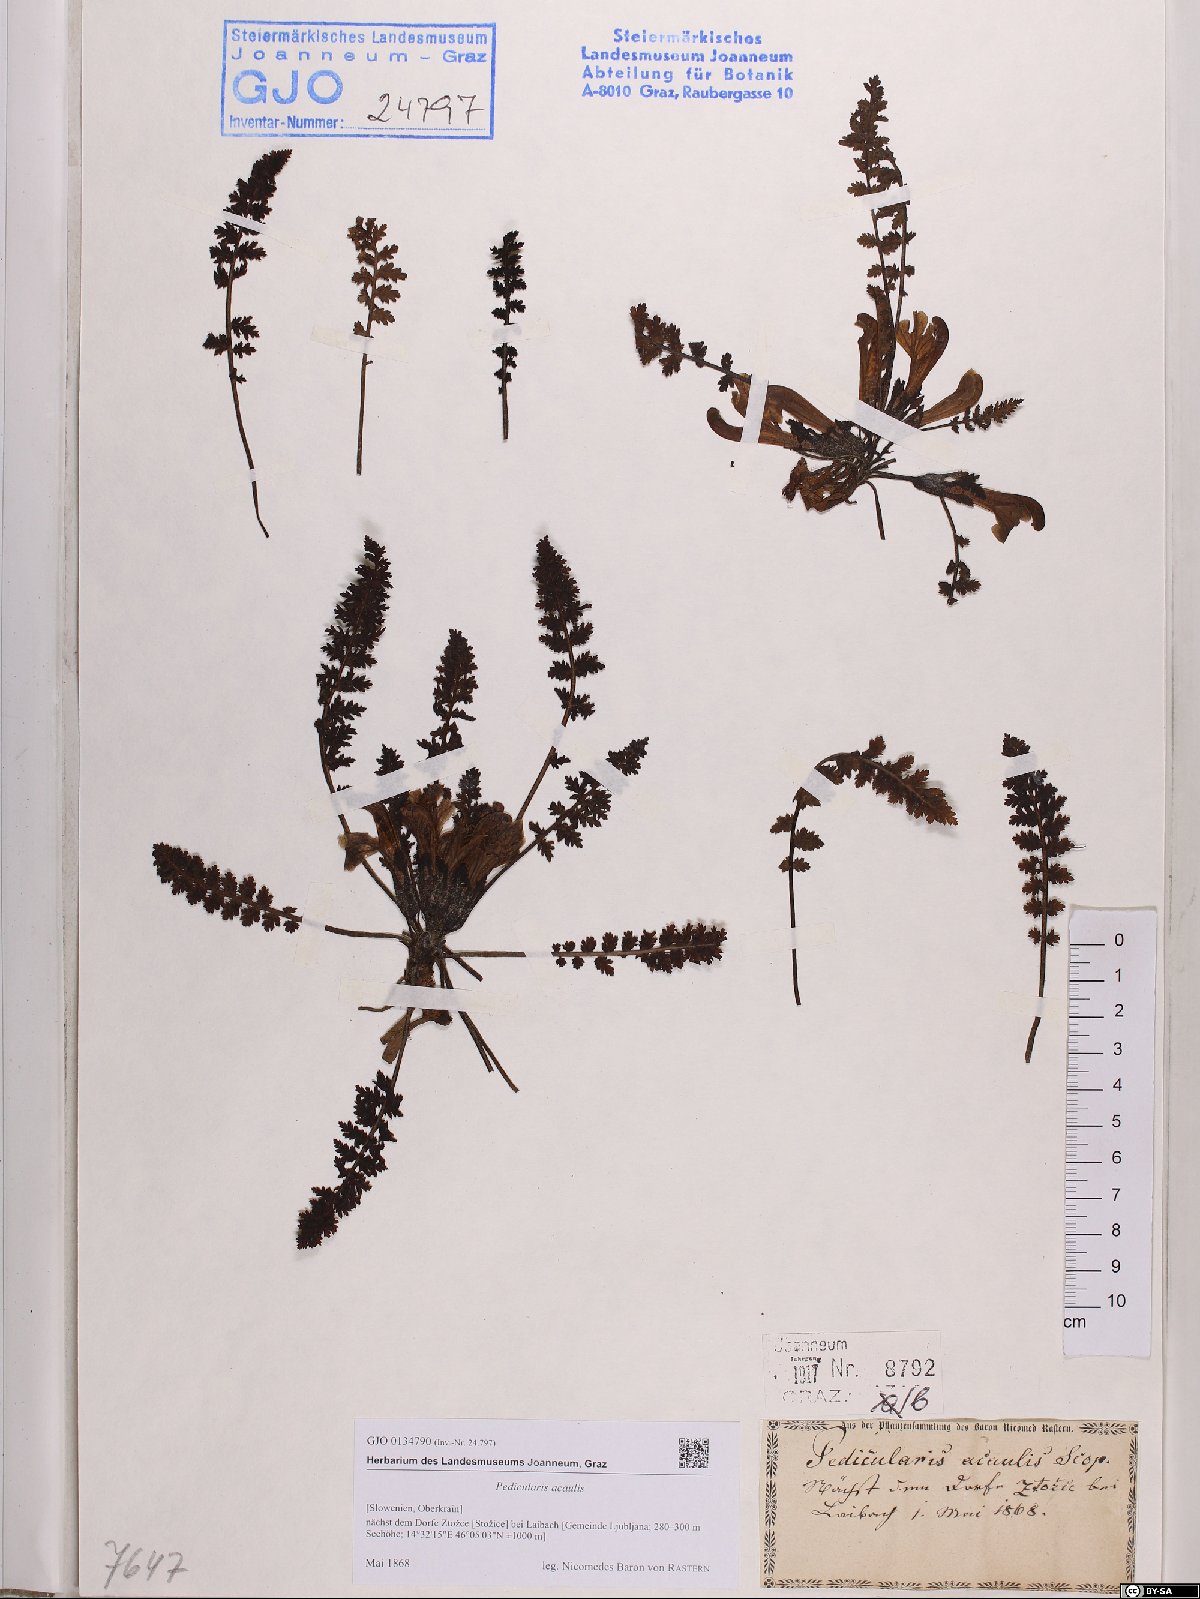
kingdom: Plantae
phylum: Tracheophyta
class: Magnoliopsida
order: Lamiales
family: Orobanchaceae
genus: Pedicularis
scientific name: Pedicularis acaulis
